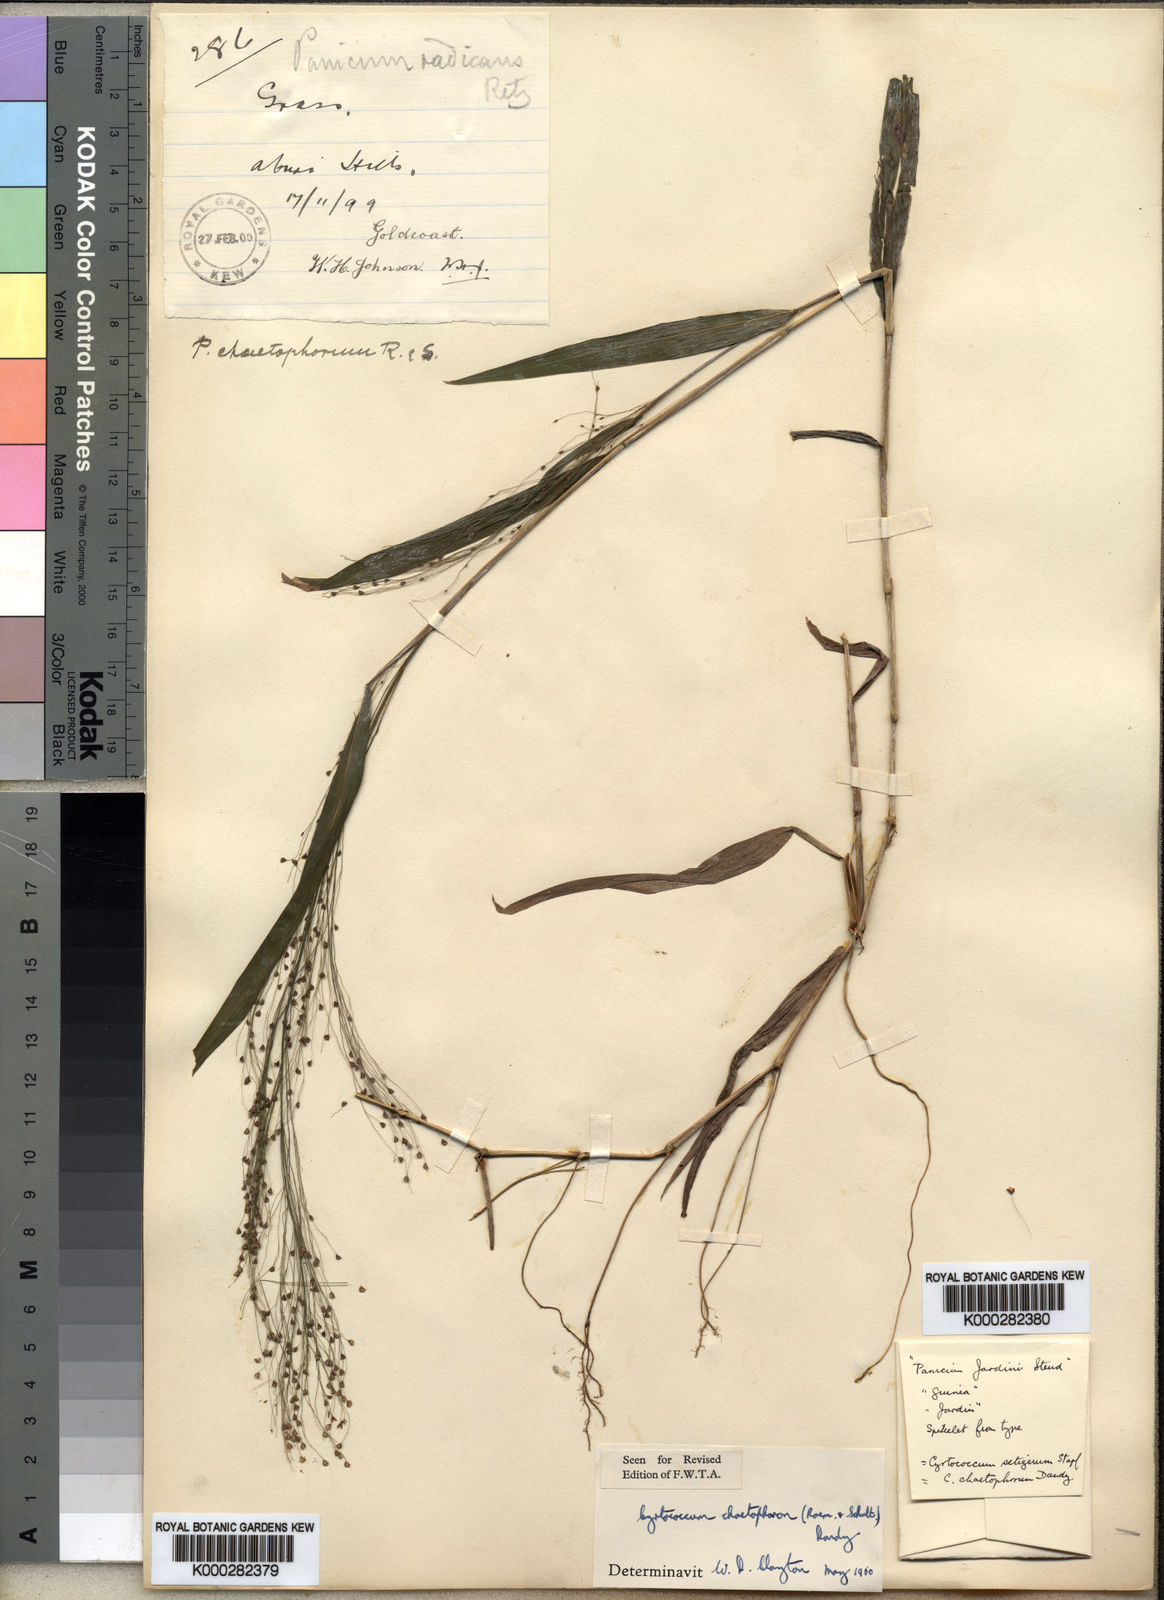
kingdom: Plantae
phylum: Tracheophyta
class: Liliopsida
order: Poales
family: Poaceae
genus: Cyrtococcum
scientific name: Cyrtococcum chaetophoron
